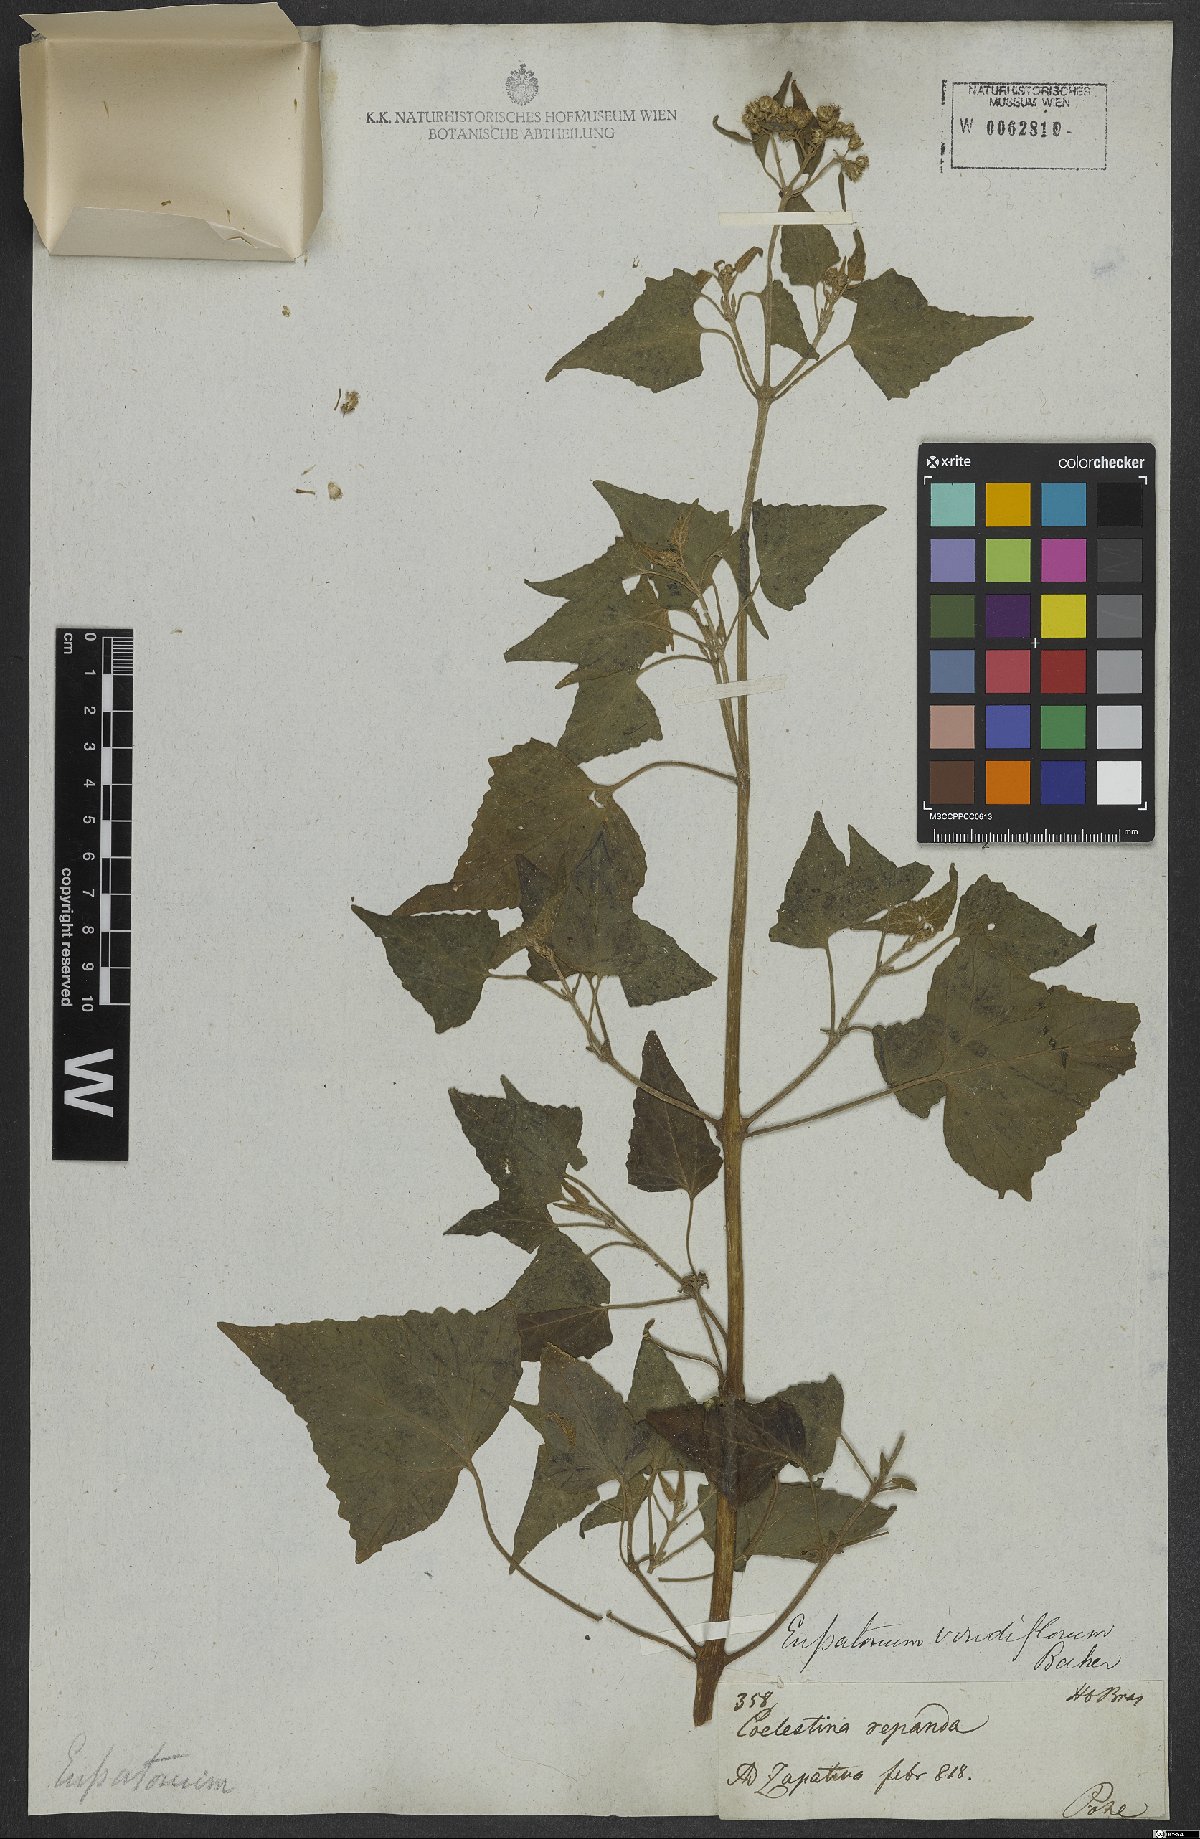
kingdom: Plantae
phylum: Tracheophyta
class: Magnoliopsida
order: Asterales
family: Asteraceae
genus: Bartlettina
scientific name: Bartlettina conspicua
